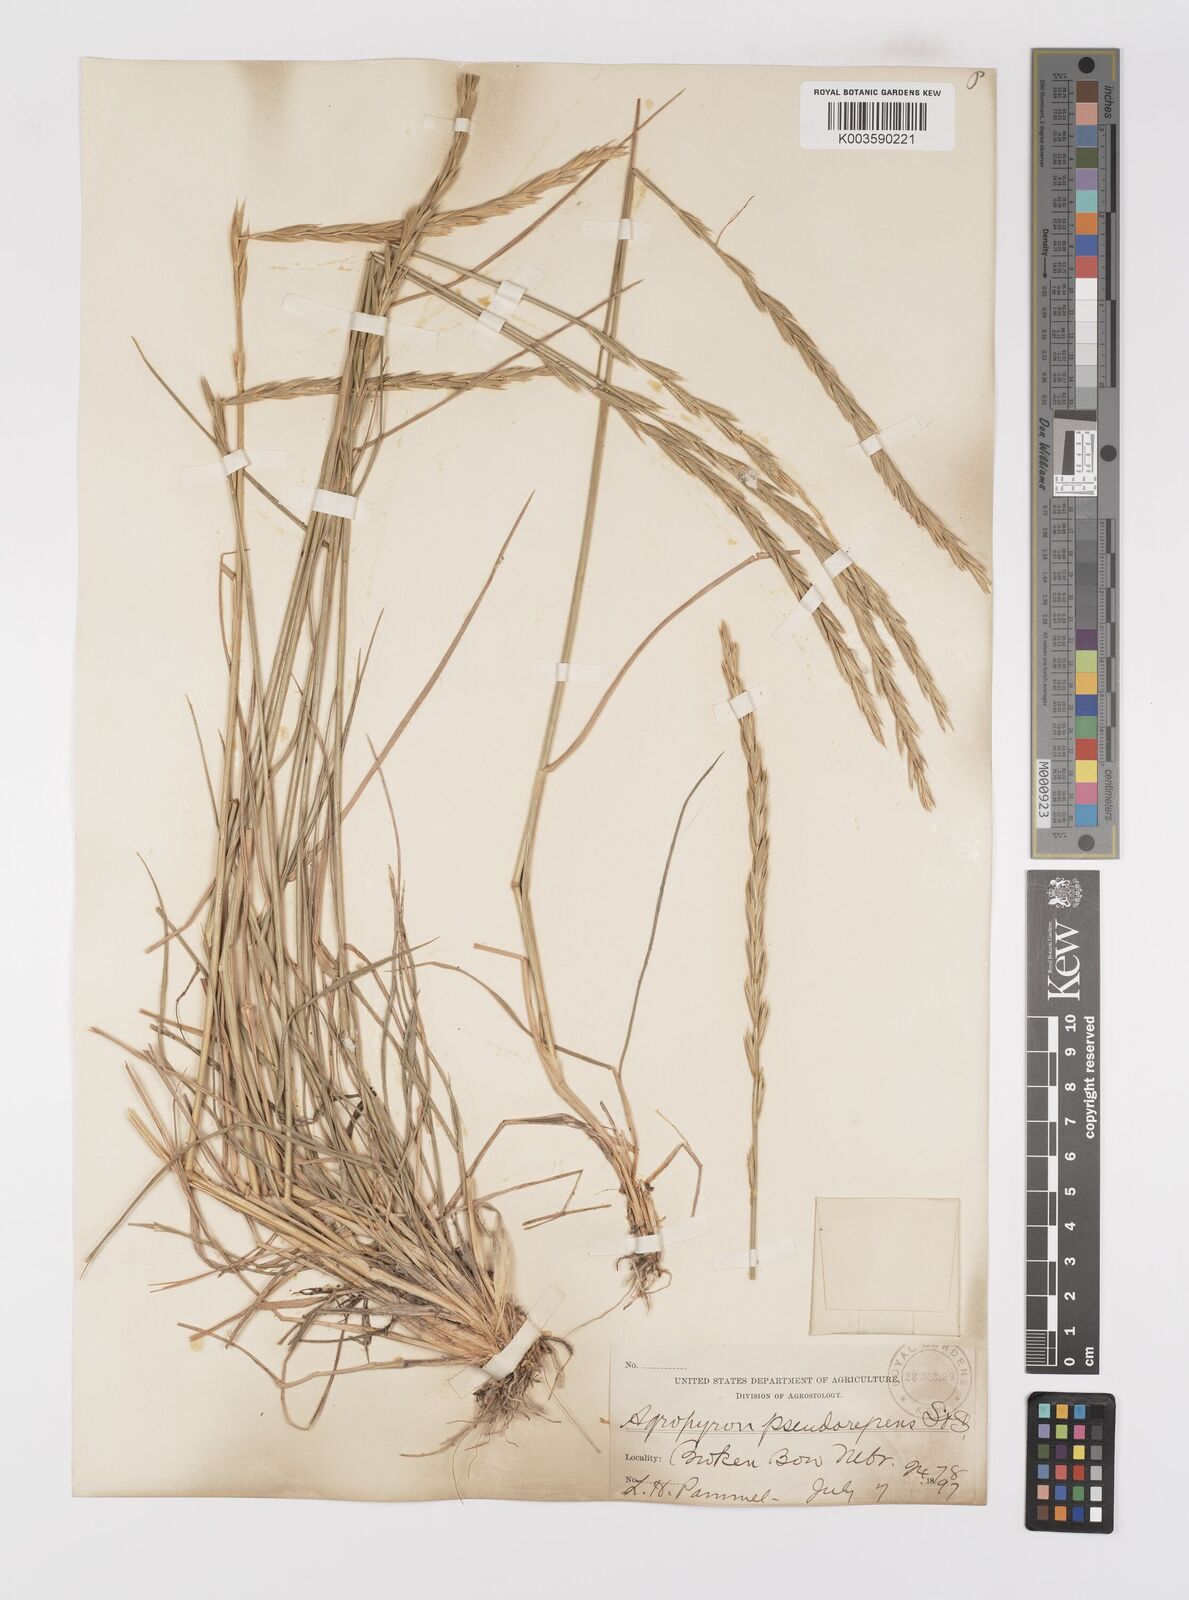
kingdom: Plantae
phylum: Tracheophyta
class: Liliopsida
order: Poales
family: Poaceae
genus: Elymus
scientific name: Elymus violaceus
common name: Arctic wheatgrass
